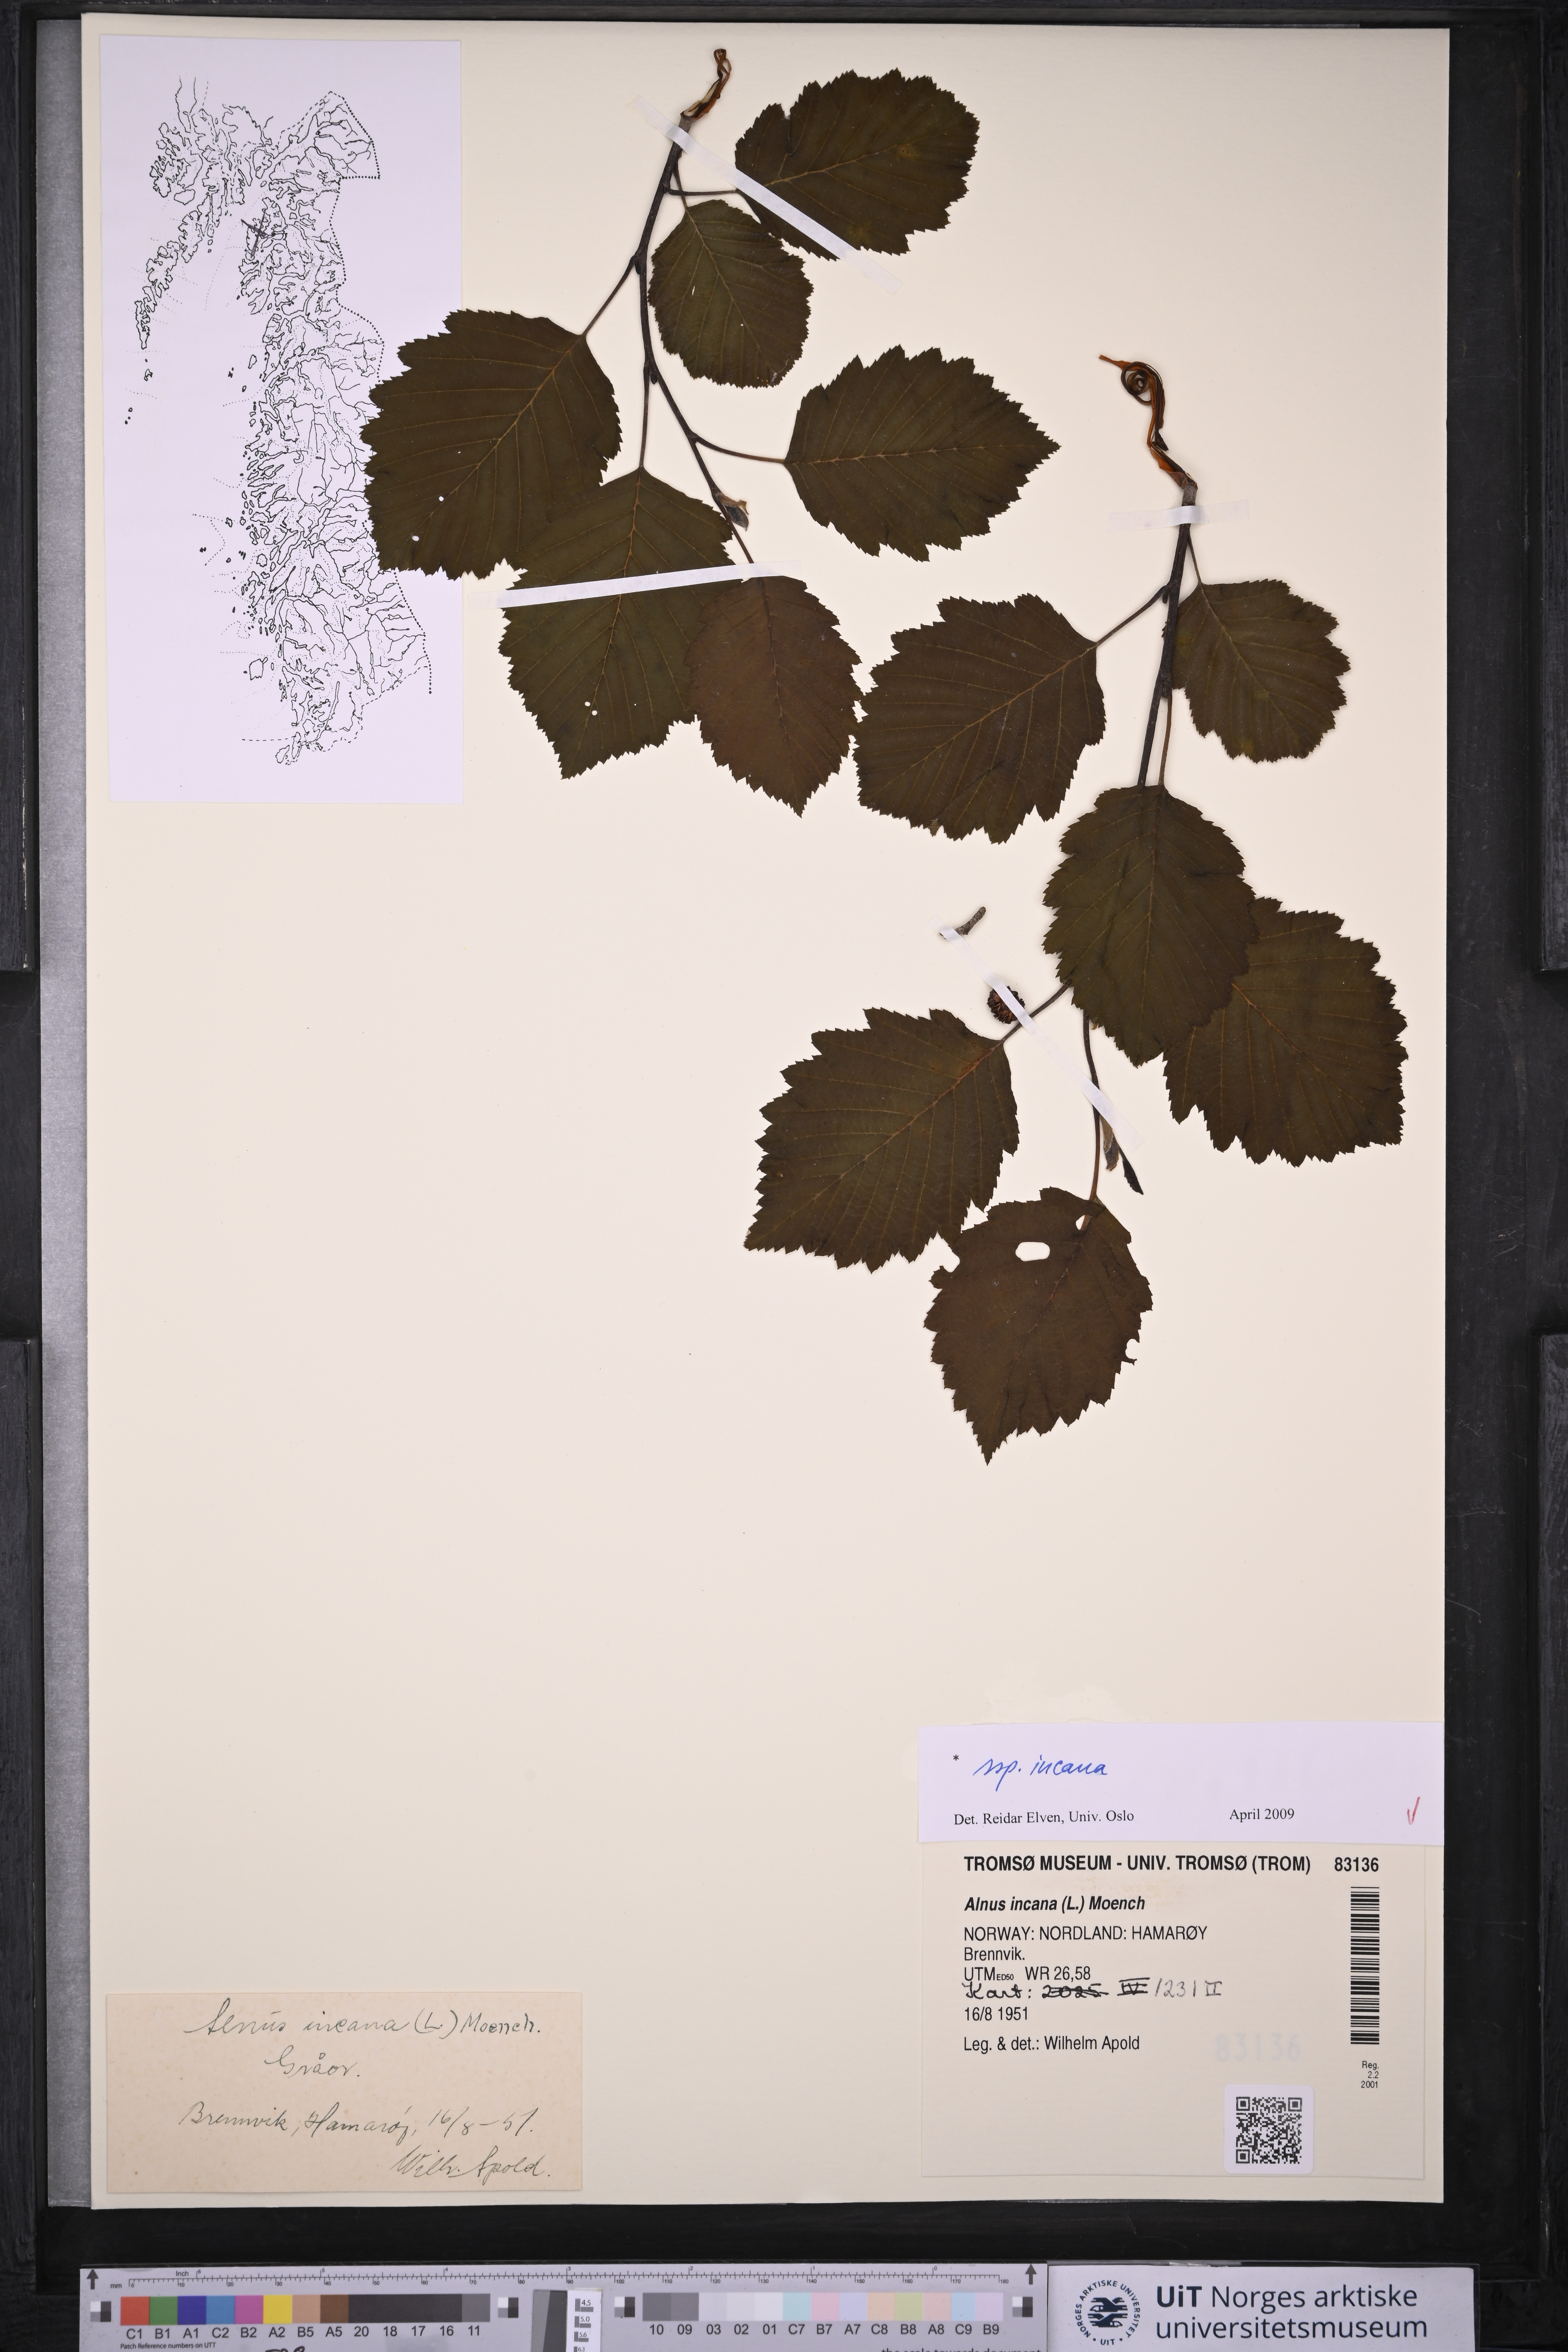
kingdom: Plantae
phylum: Tracheophyta
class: Magnoliopsida
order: Fagales
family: Betulaceae
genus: Alnus
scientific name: Alnus incana
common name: Grey alder
